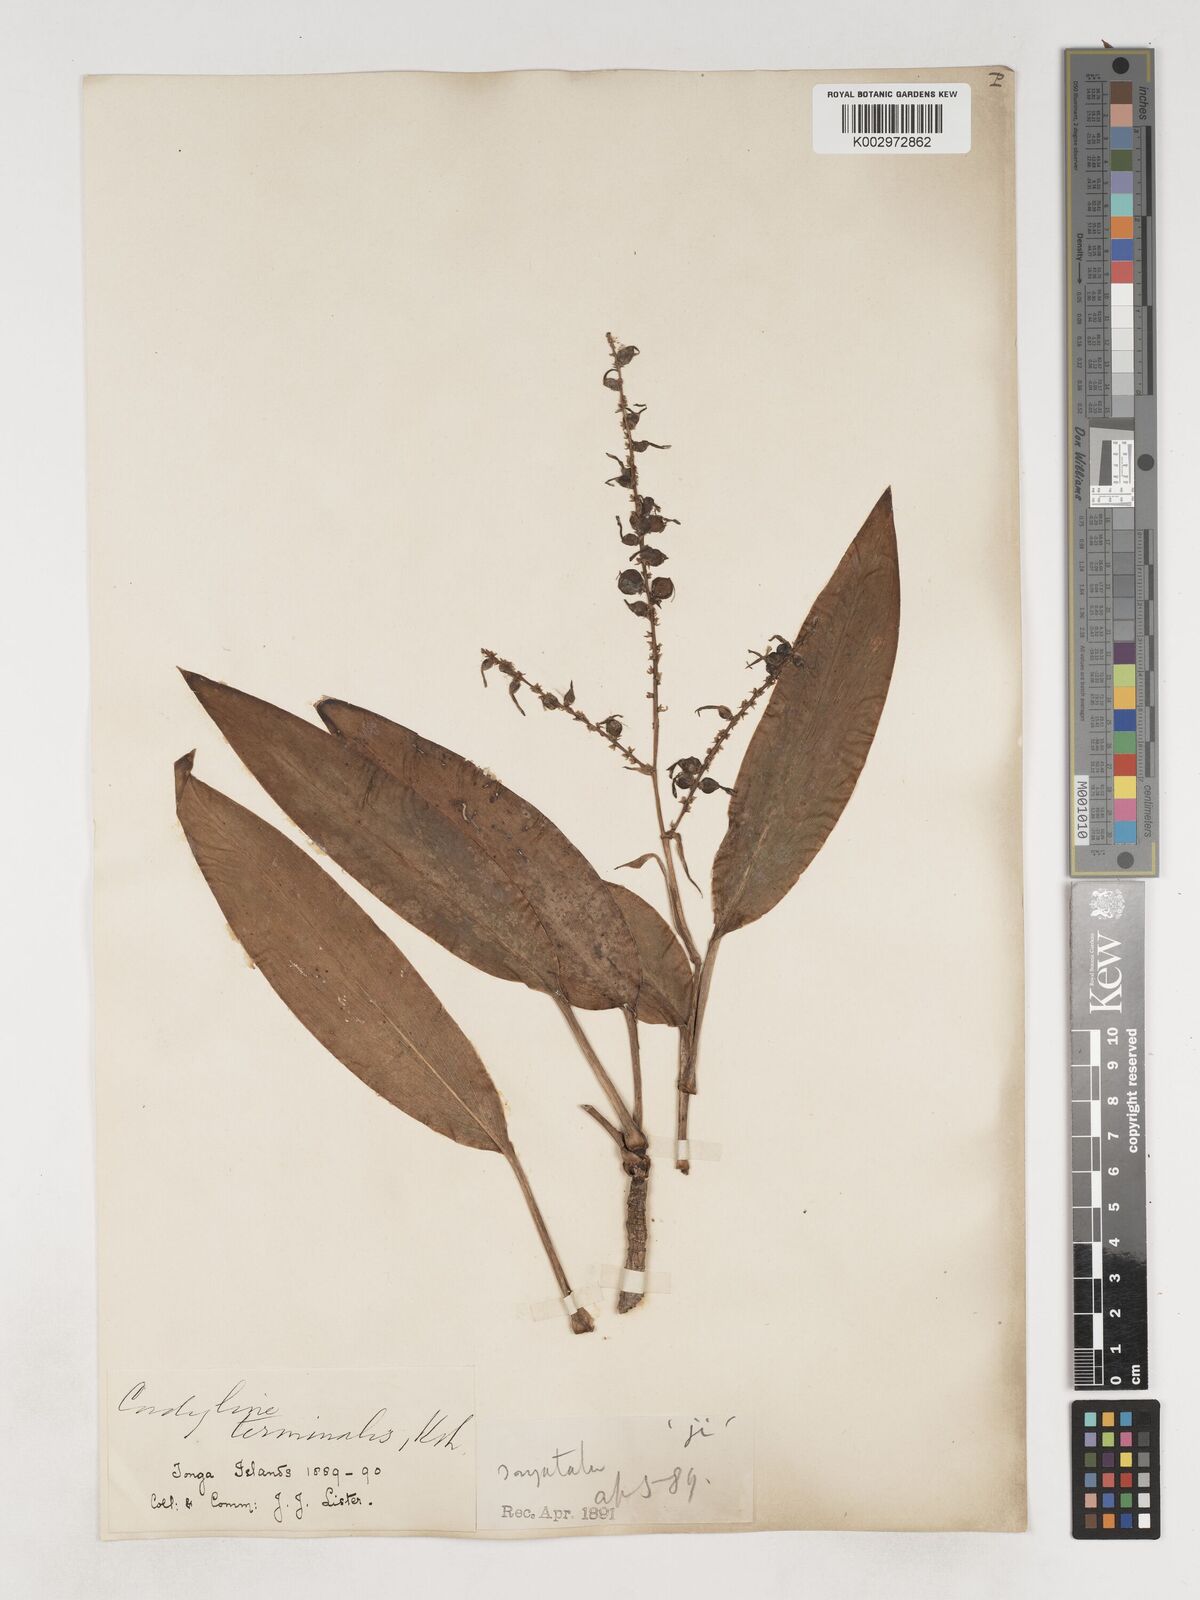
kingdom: Plantae
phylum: Tracheophyta
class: Liliopsida
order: Asparagales
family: Asparagaceae
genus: Cordyline
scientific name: Cordyline fruticosa
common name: Good-luck-plant
